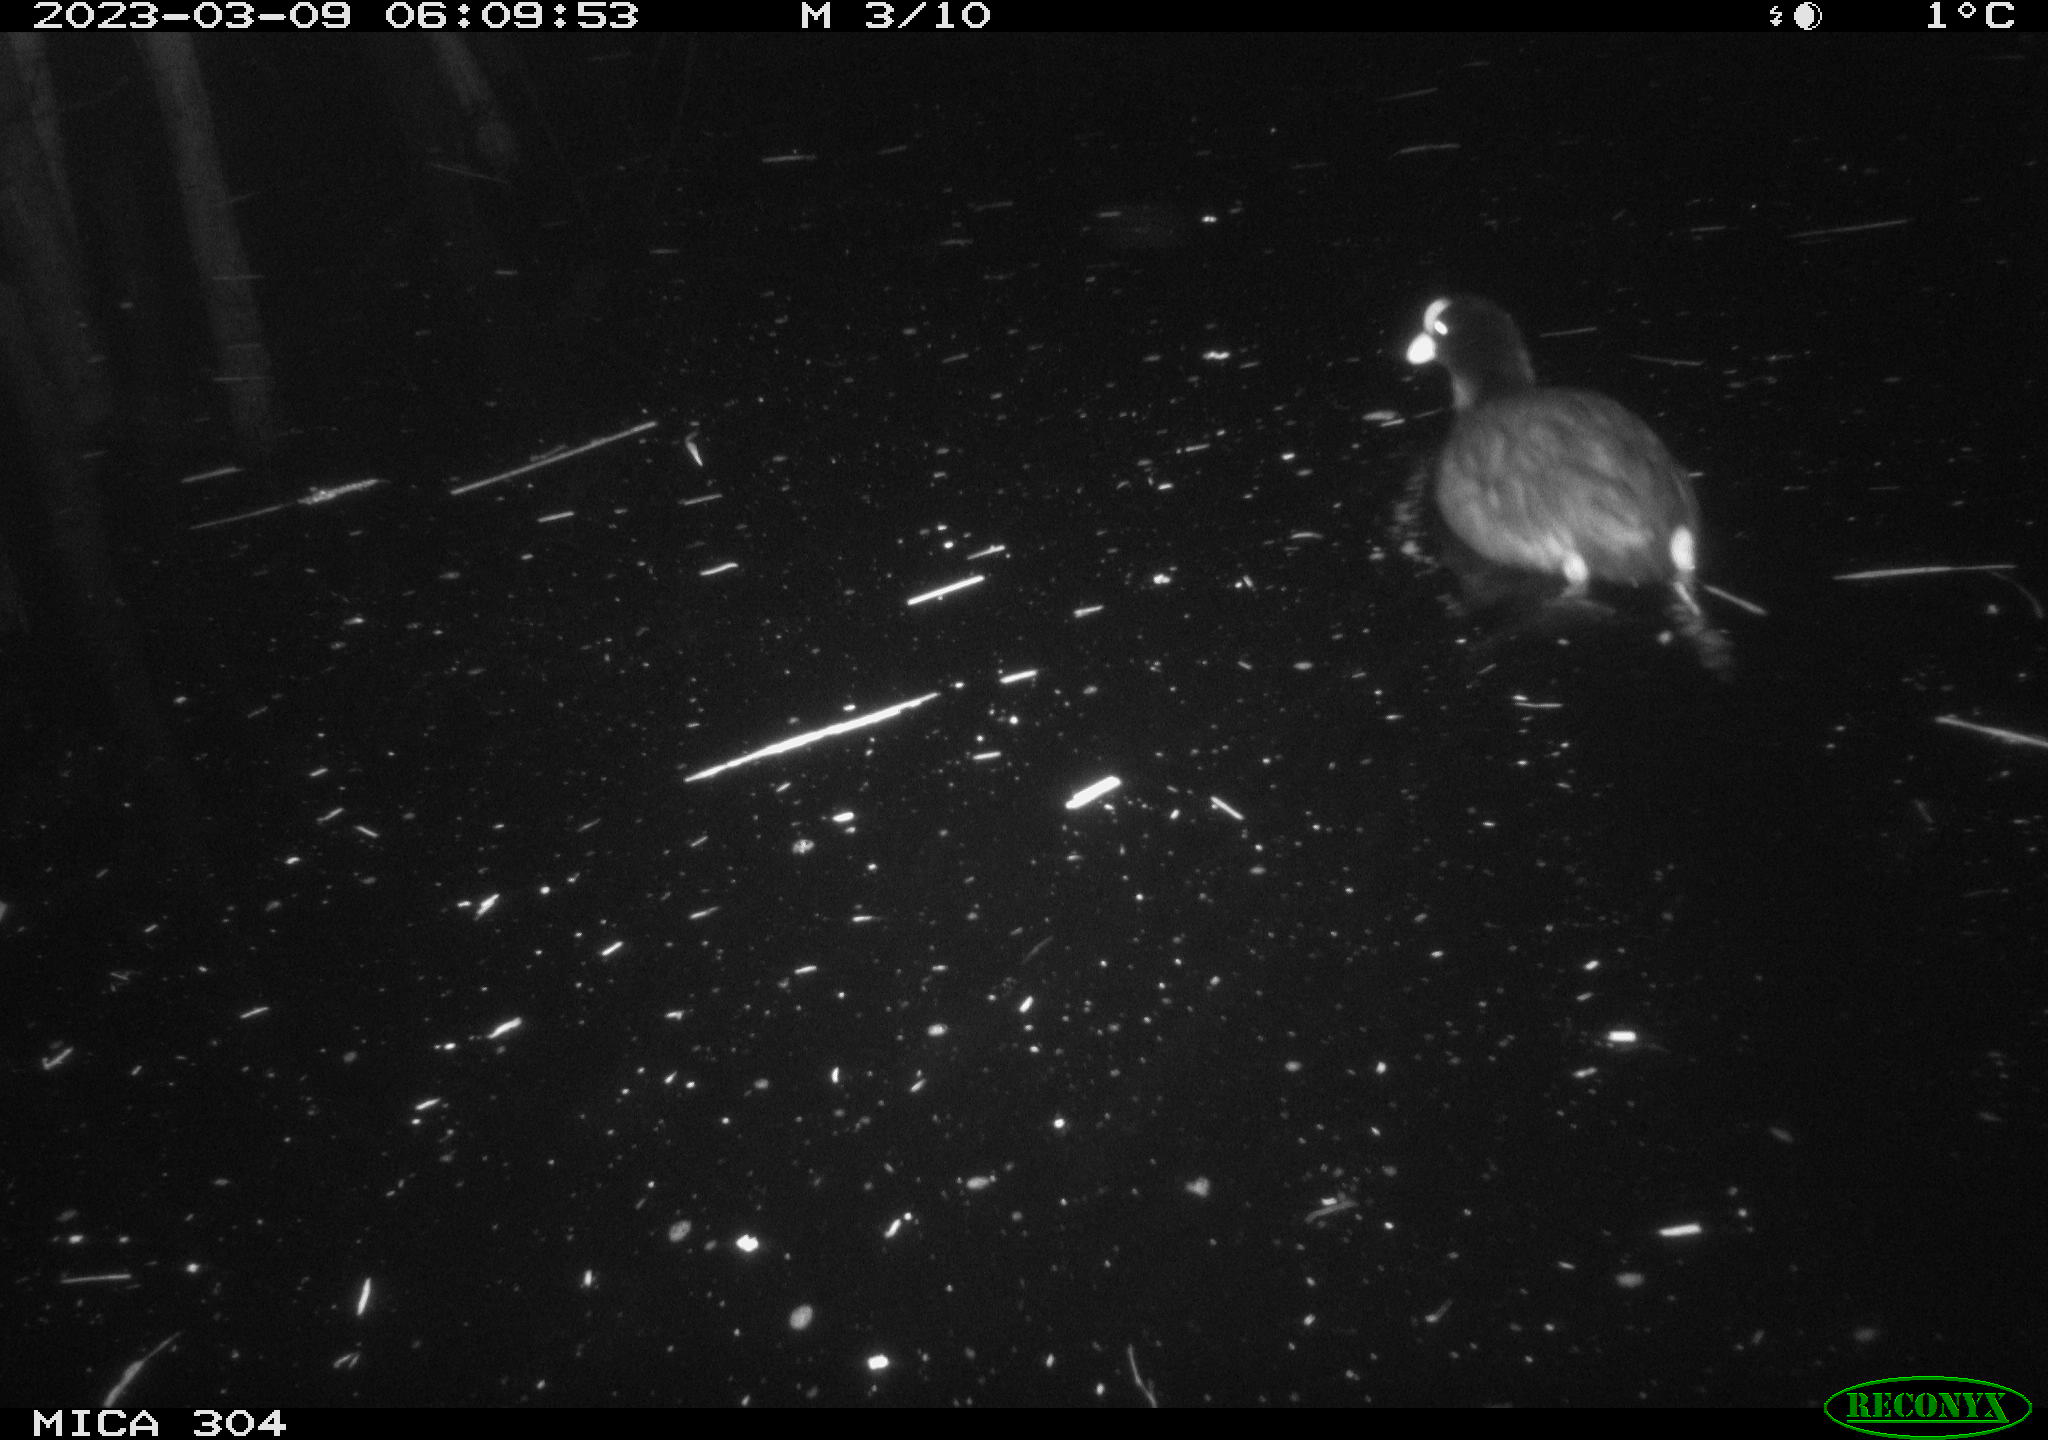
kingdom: Animalia
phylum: Chordata
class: Aves
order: Gruiformes
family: Rallidae
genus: Fulica
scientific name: Fulica atra
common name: Eurasian coot
